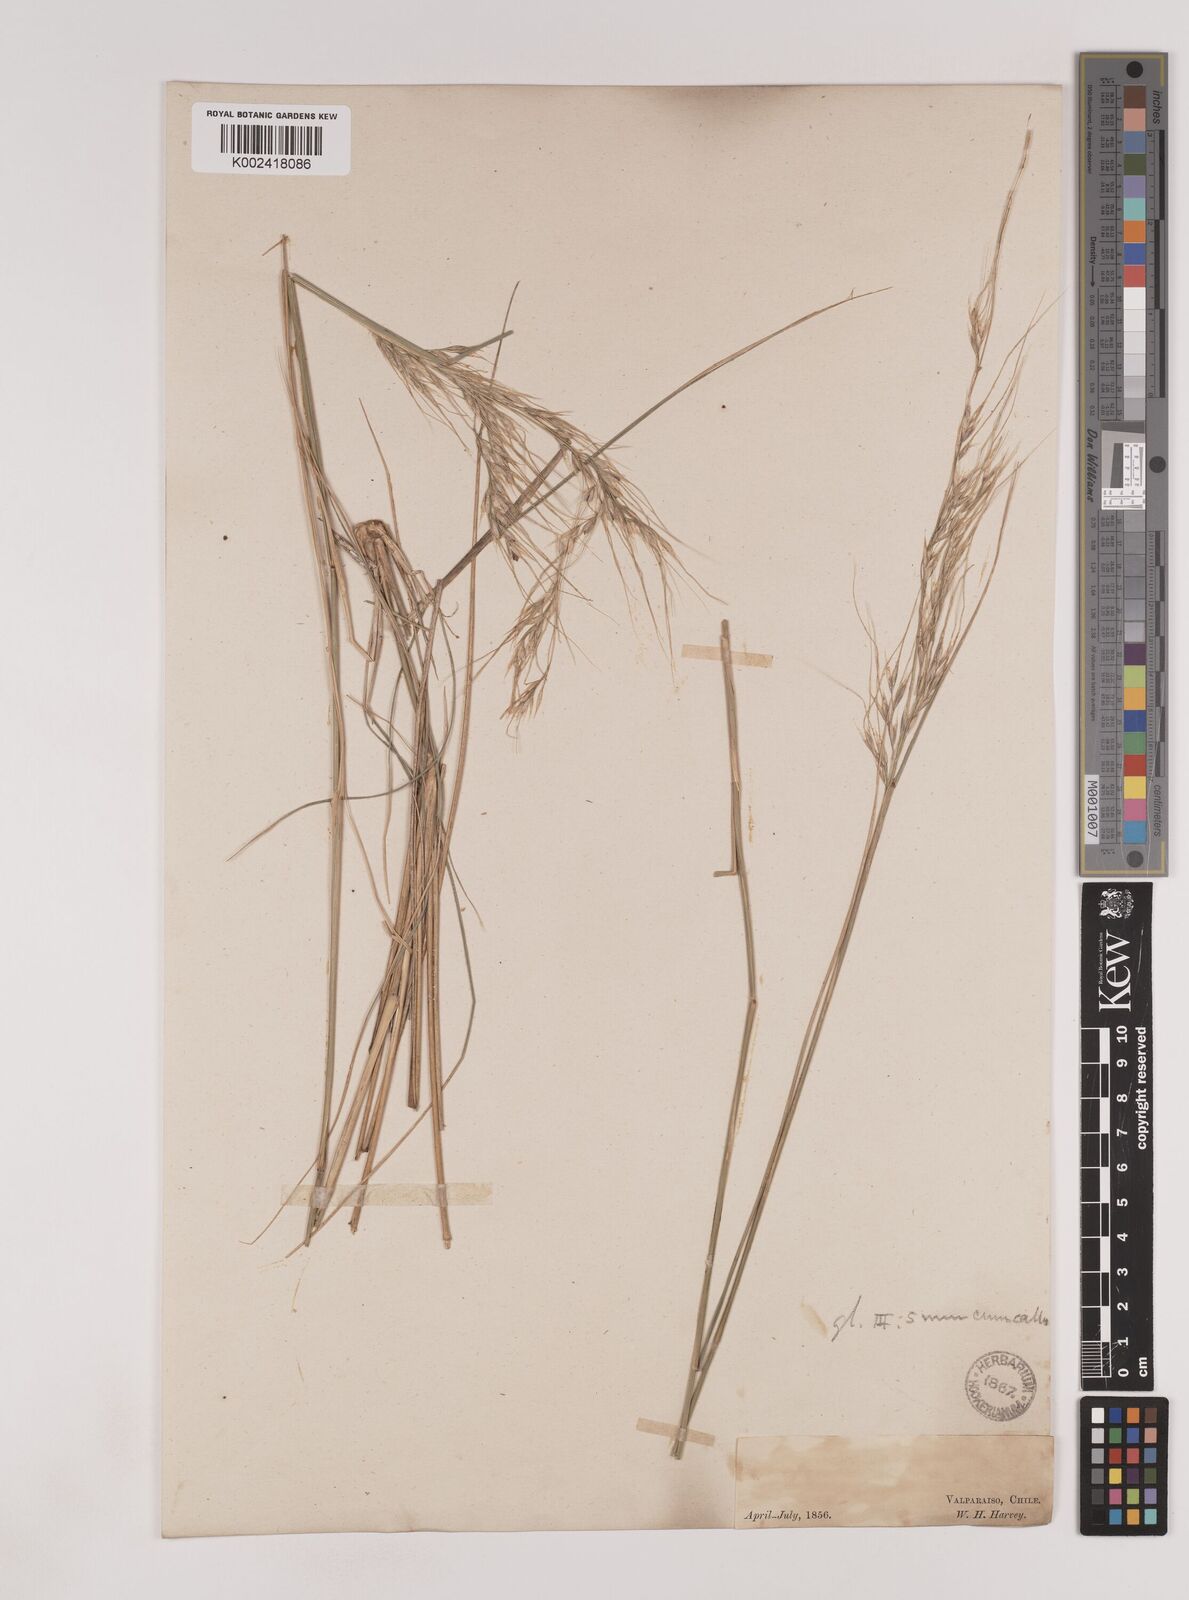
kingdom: Plantae
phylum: Tracheophyta
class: Liliopsida
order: Poales
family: Poaceae
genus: Nassella
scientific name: Nassella
